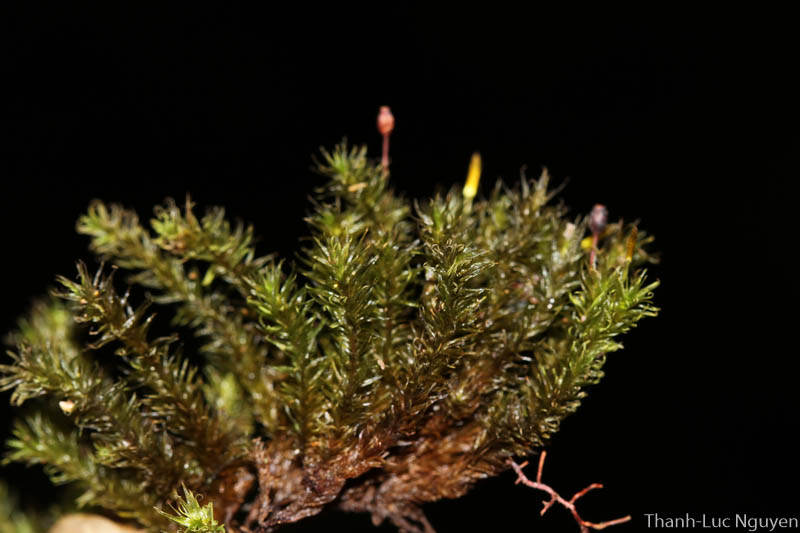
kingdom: Plantae
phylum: Bryophyta
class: Bryopsida
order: Orthotrichales
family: Orthotrichaceae
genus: Macromitrium
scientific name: Macromitrium
